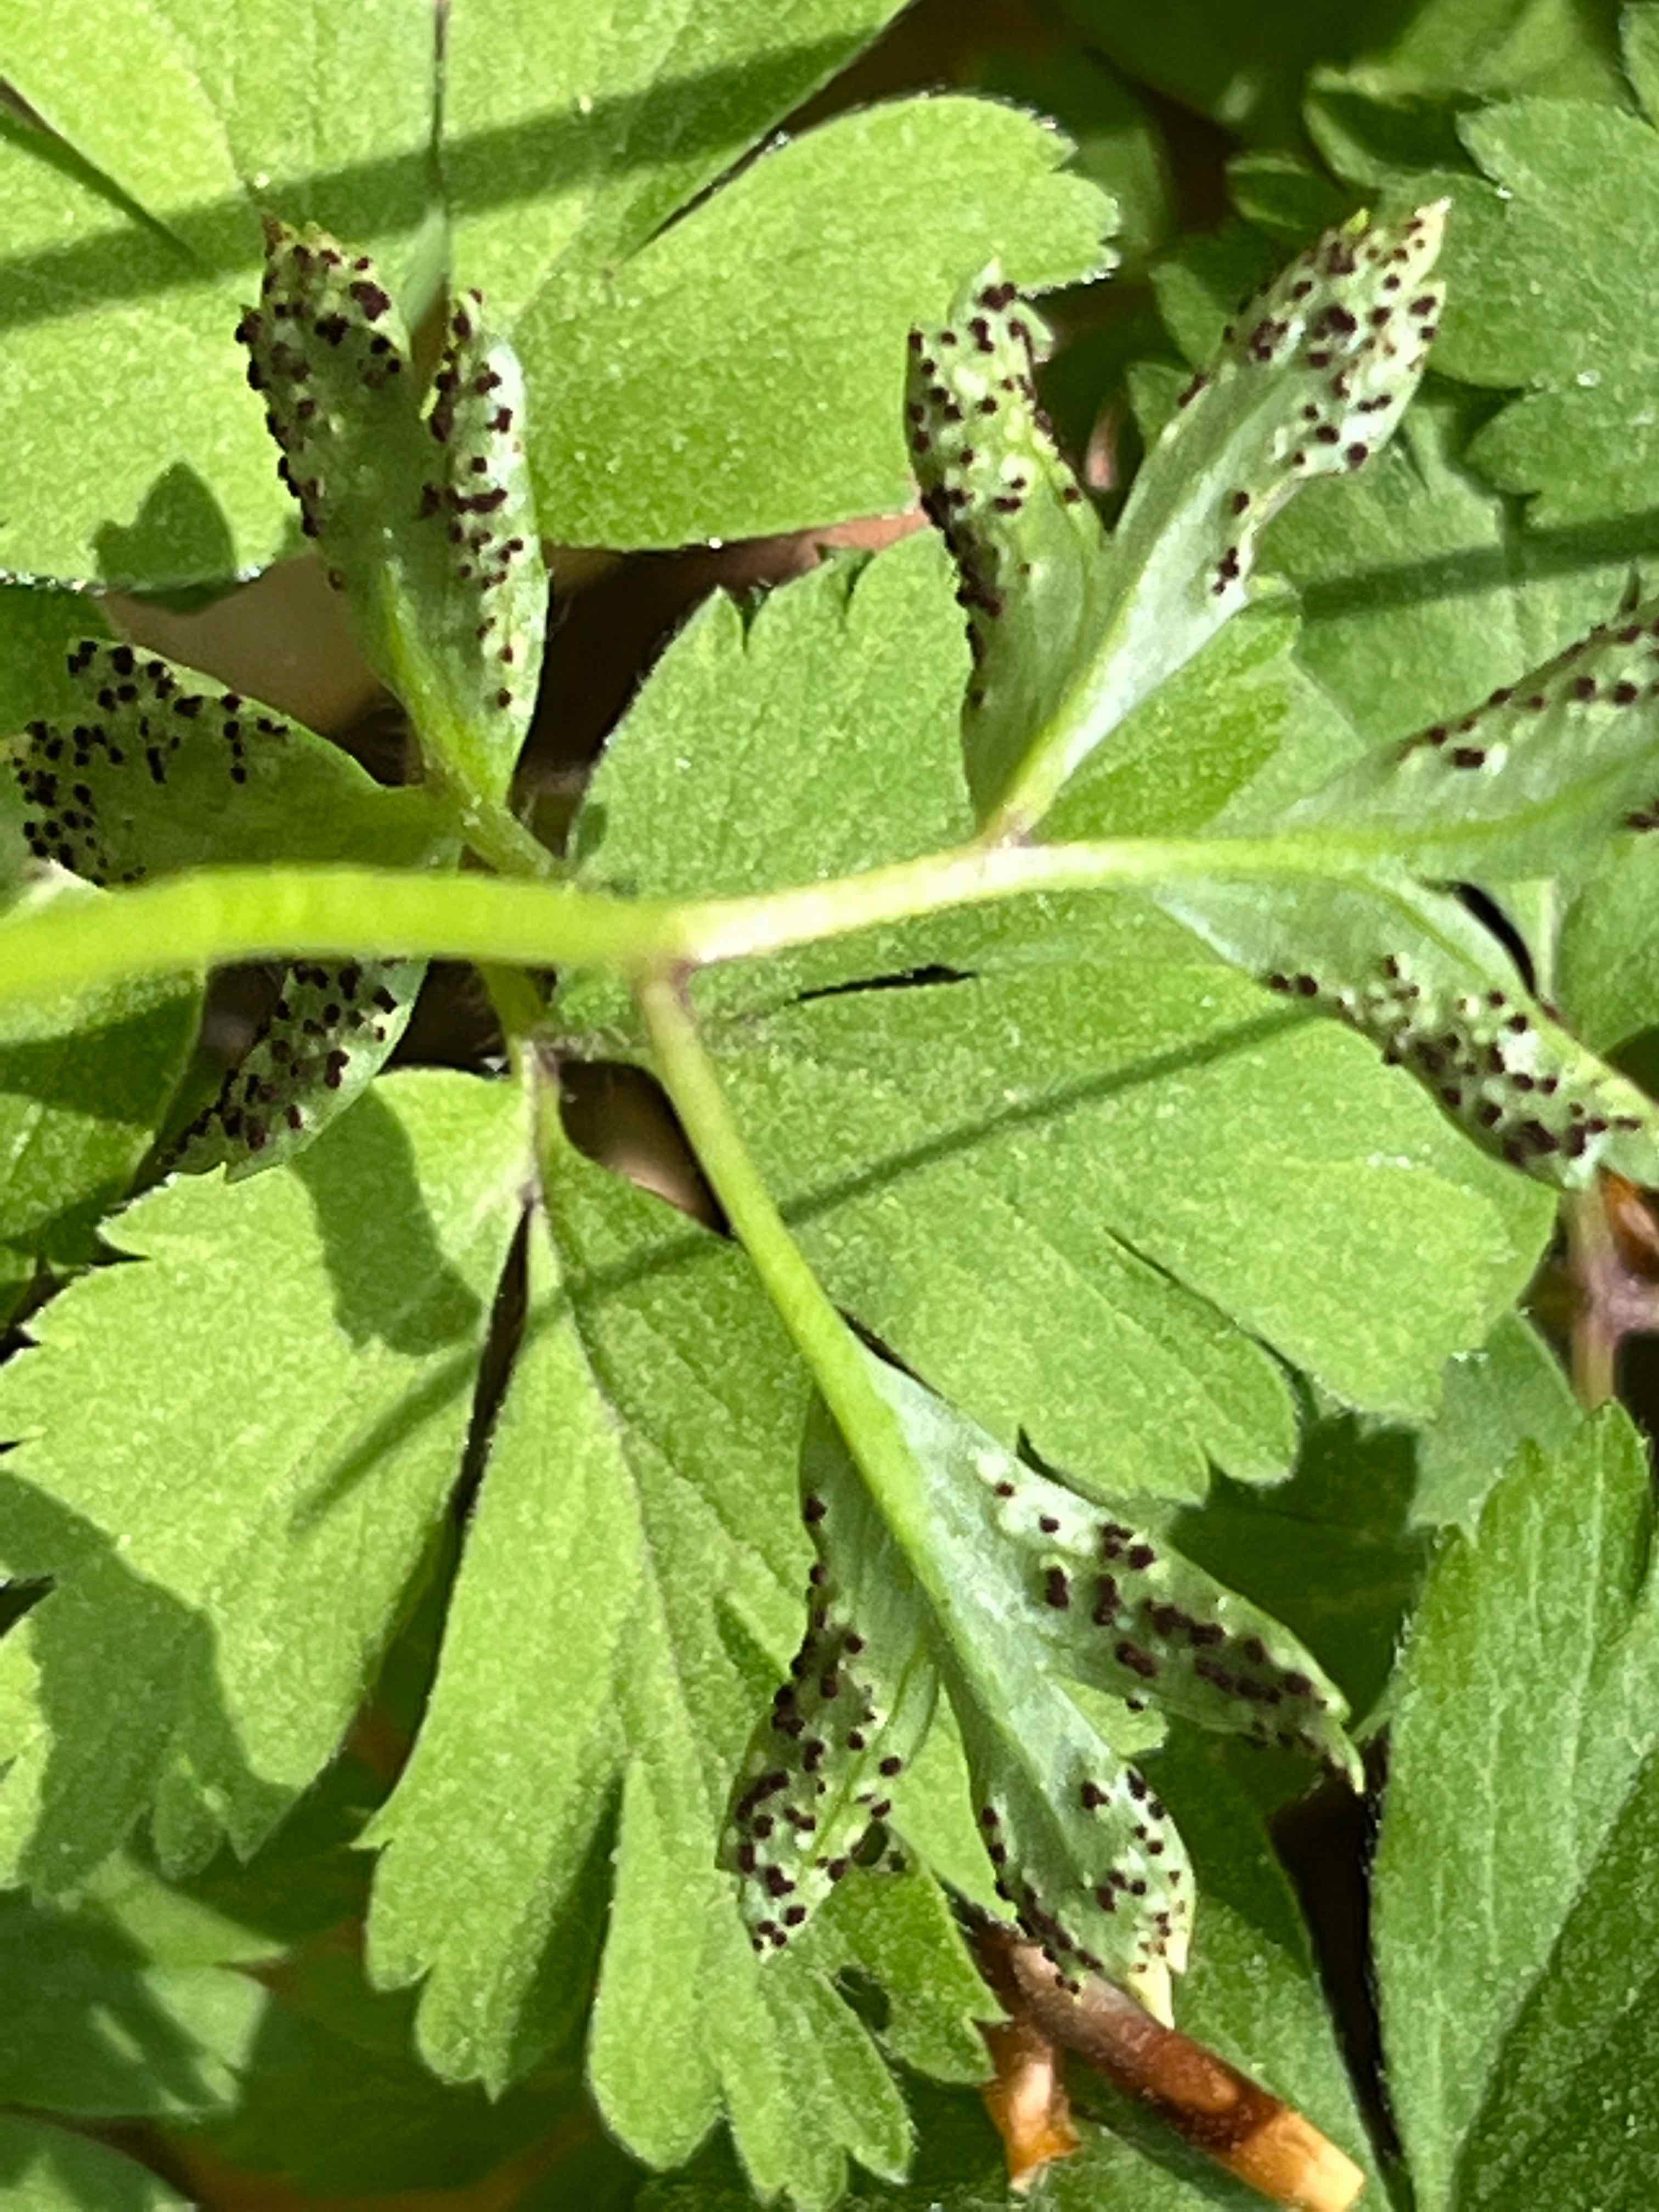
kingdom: Fungi
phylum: Basidiomycota
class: Pucciniomycetes
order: Pucciniales
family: Tranzscheliaceae
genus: Tranzschelia
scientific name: Tranzschelia anemones
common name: anemone-knæksporerust
